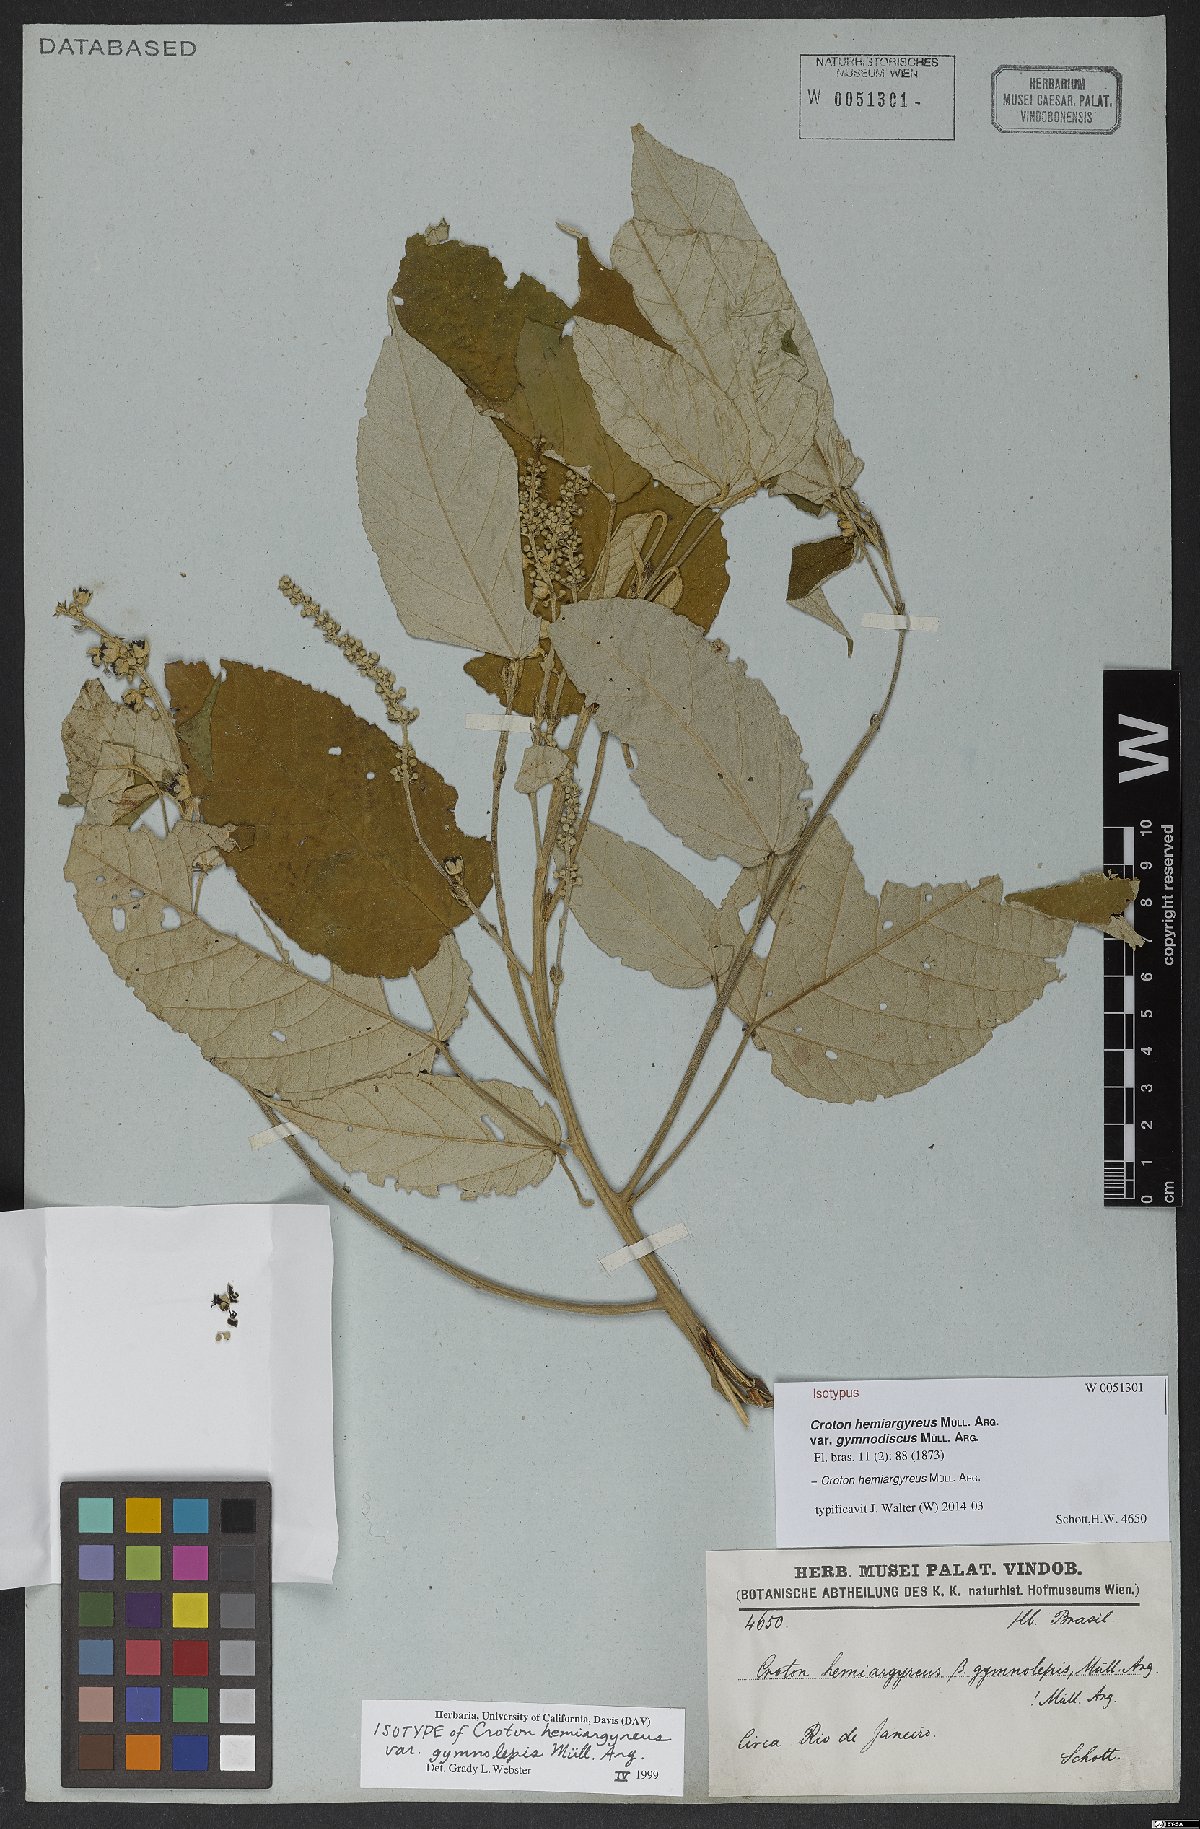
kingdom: Plantae
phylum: Tracheophyta
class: Magnoliopsida
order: Malpighiales
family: Euphorbiaceae
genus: Croton
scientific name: Croton hemiargyreus
